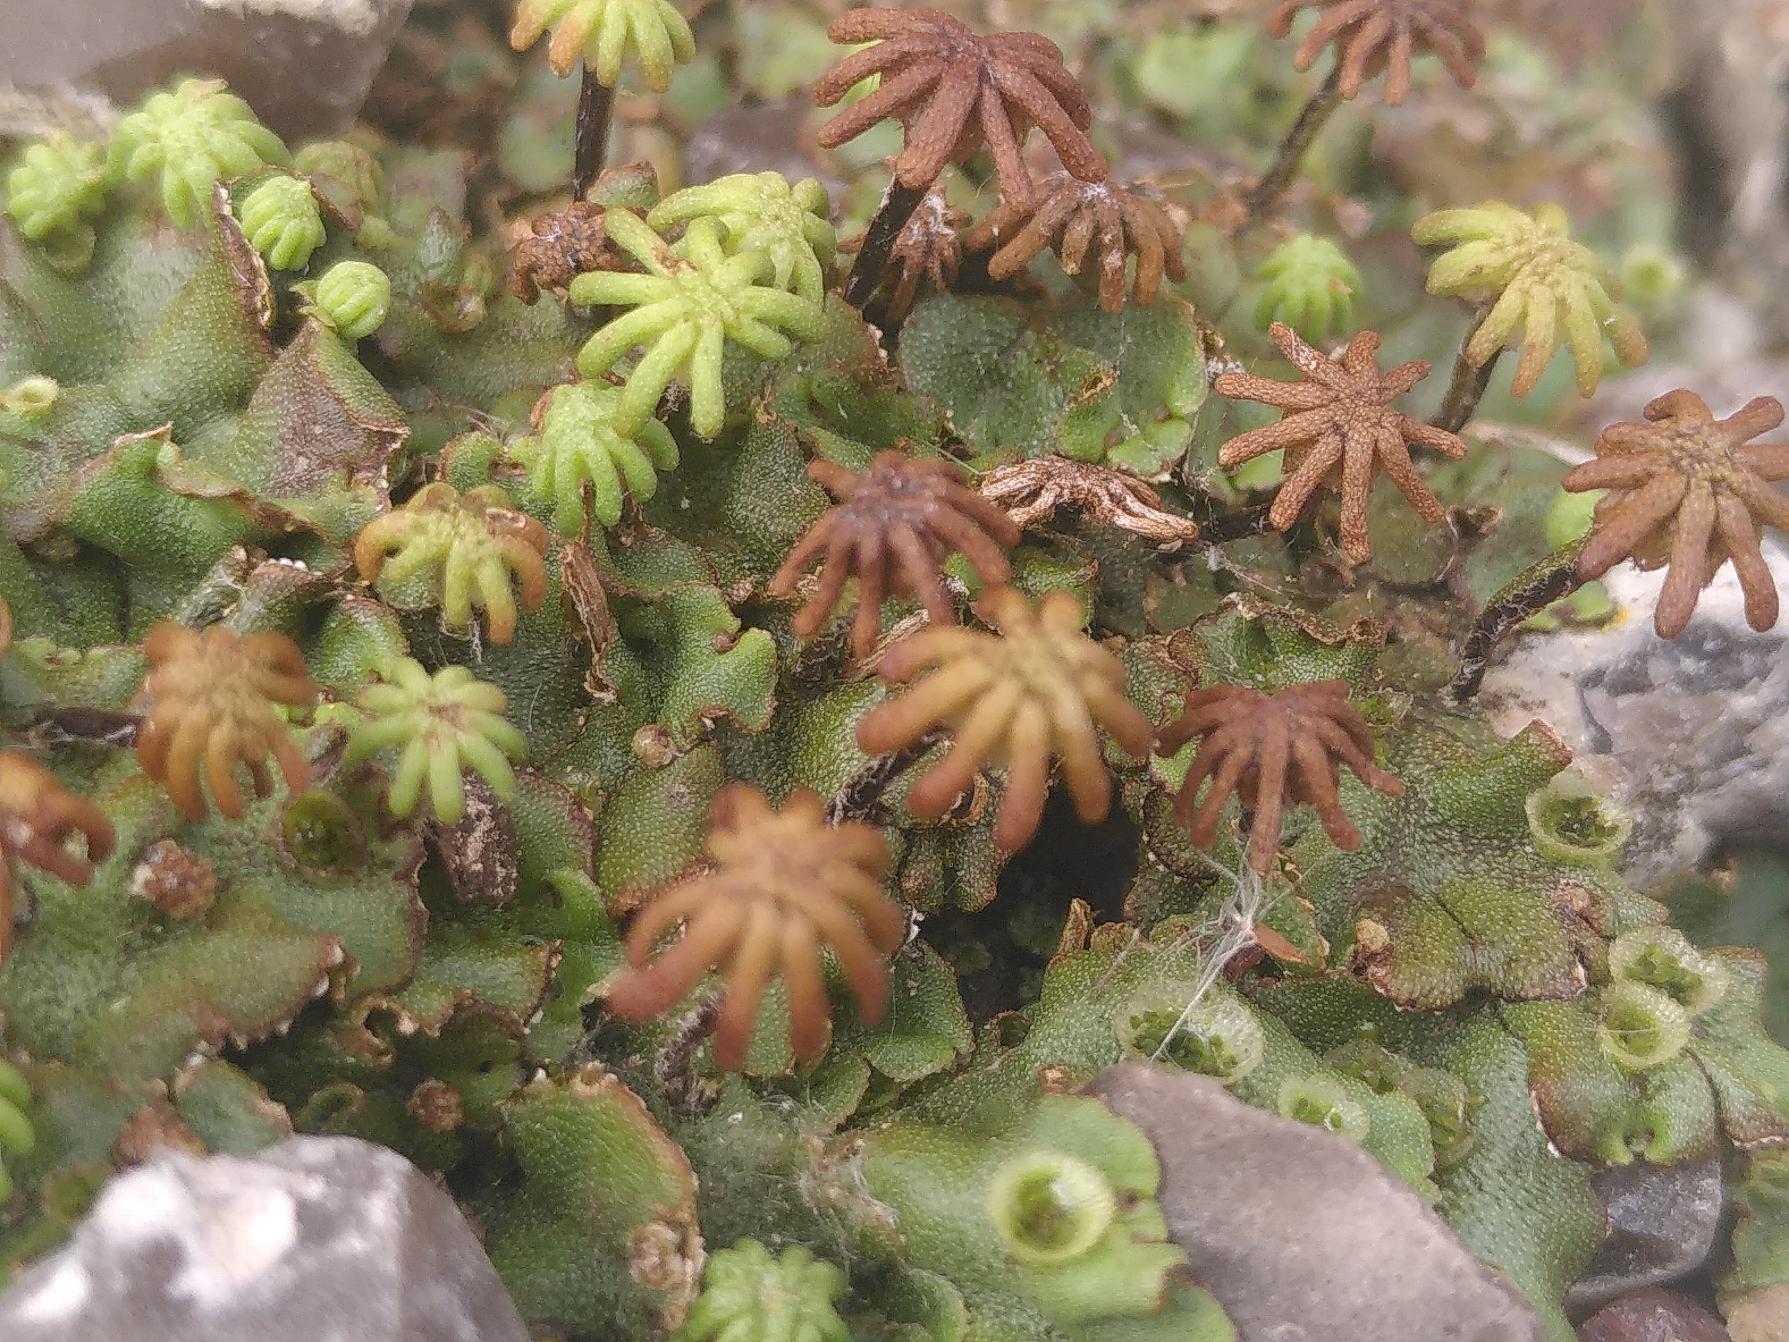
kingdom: Plantae
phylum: Marchantiophyta
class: Marchantiopsida
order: Marchantiales
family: Marchantiaceae
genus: Marchantia
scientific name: Marchantia polymorpha
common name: Almindelig lungemos (underart)
